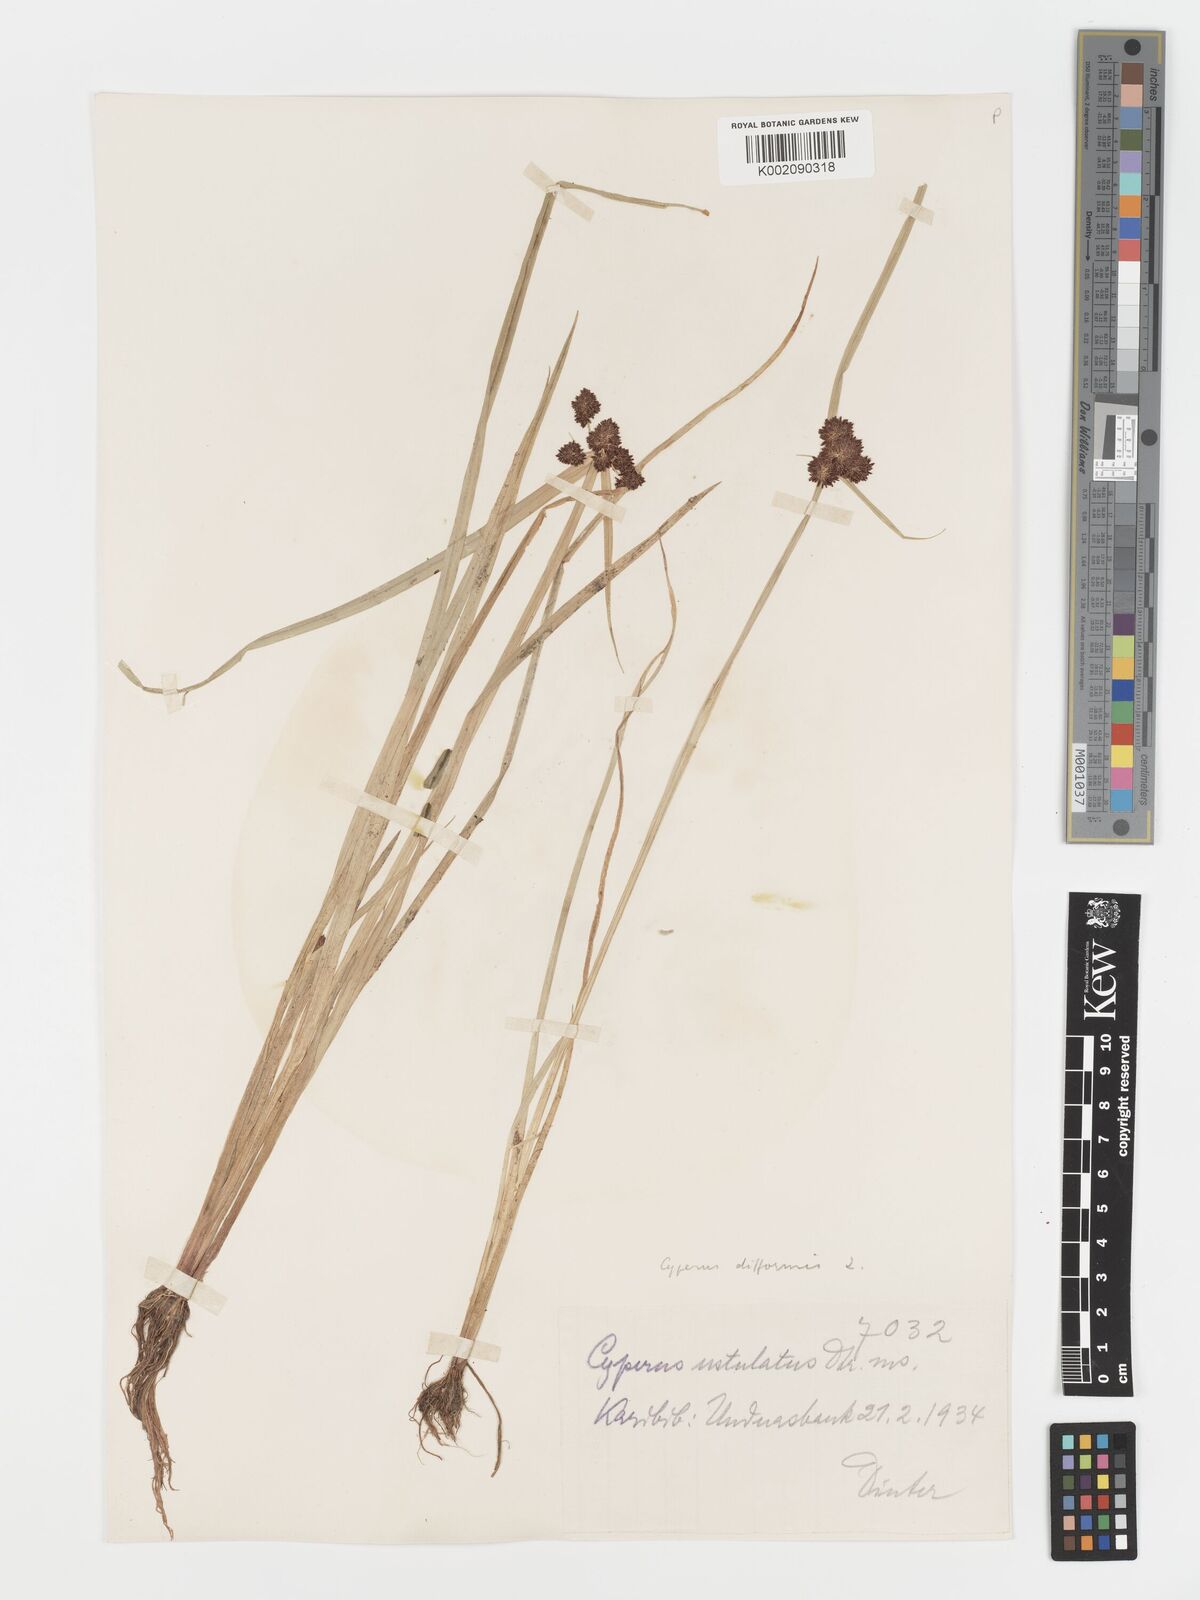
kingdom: Plantae
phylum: Tracheophyta
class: Liliopsida
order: Poales
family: Cyperaceae
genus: Cyperus
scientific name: Cyperus difformis
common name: Variable flatsedge
